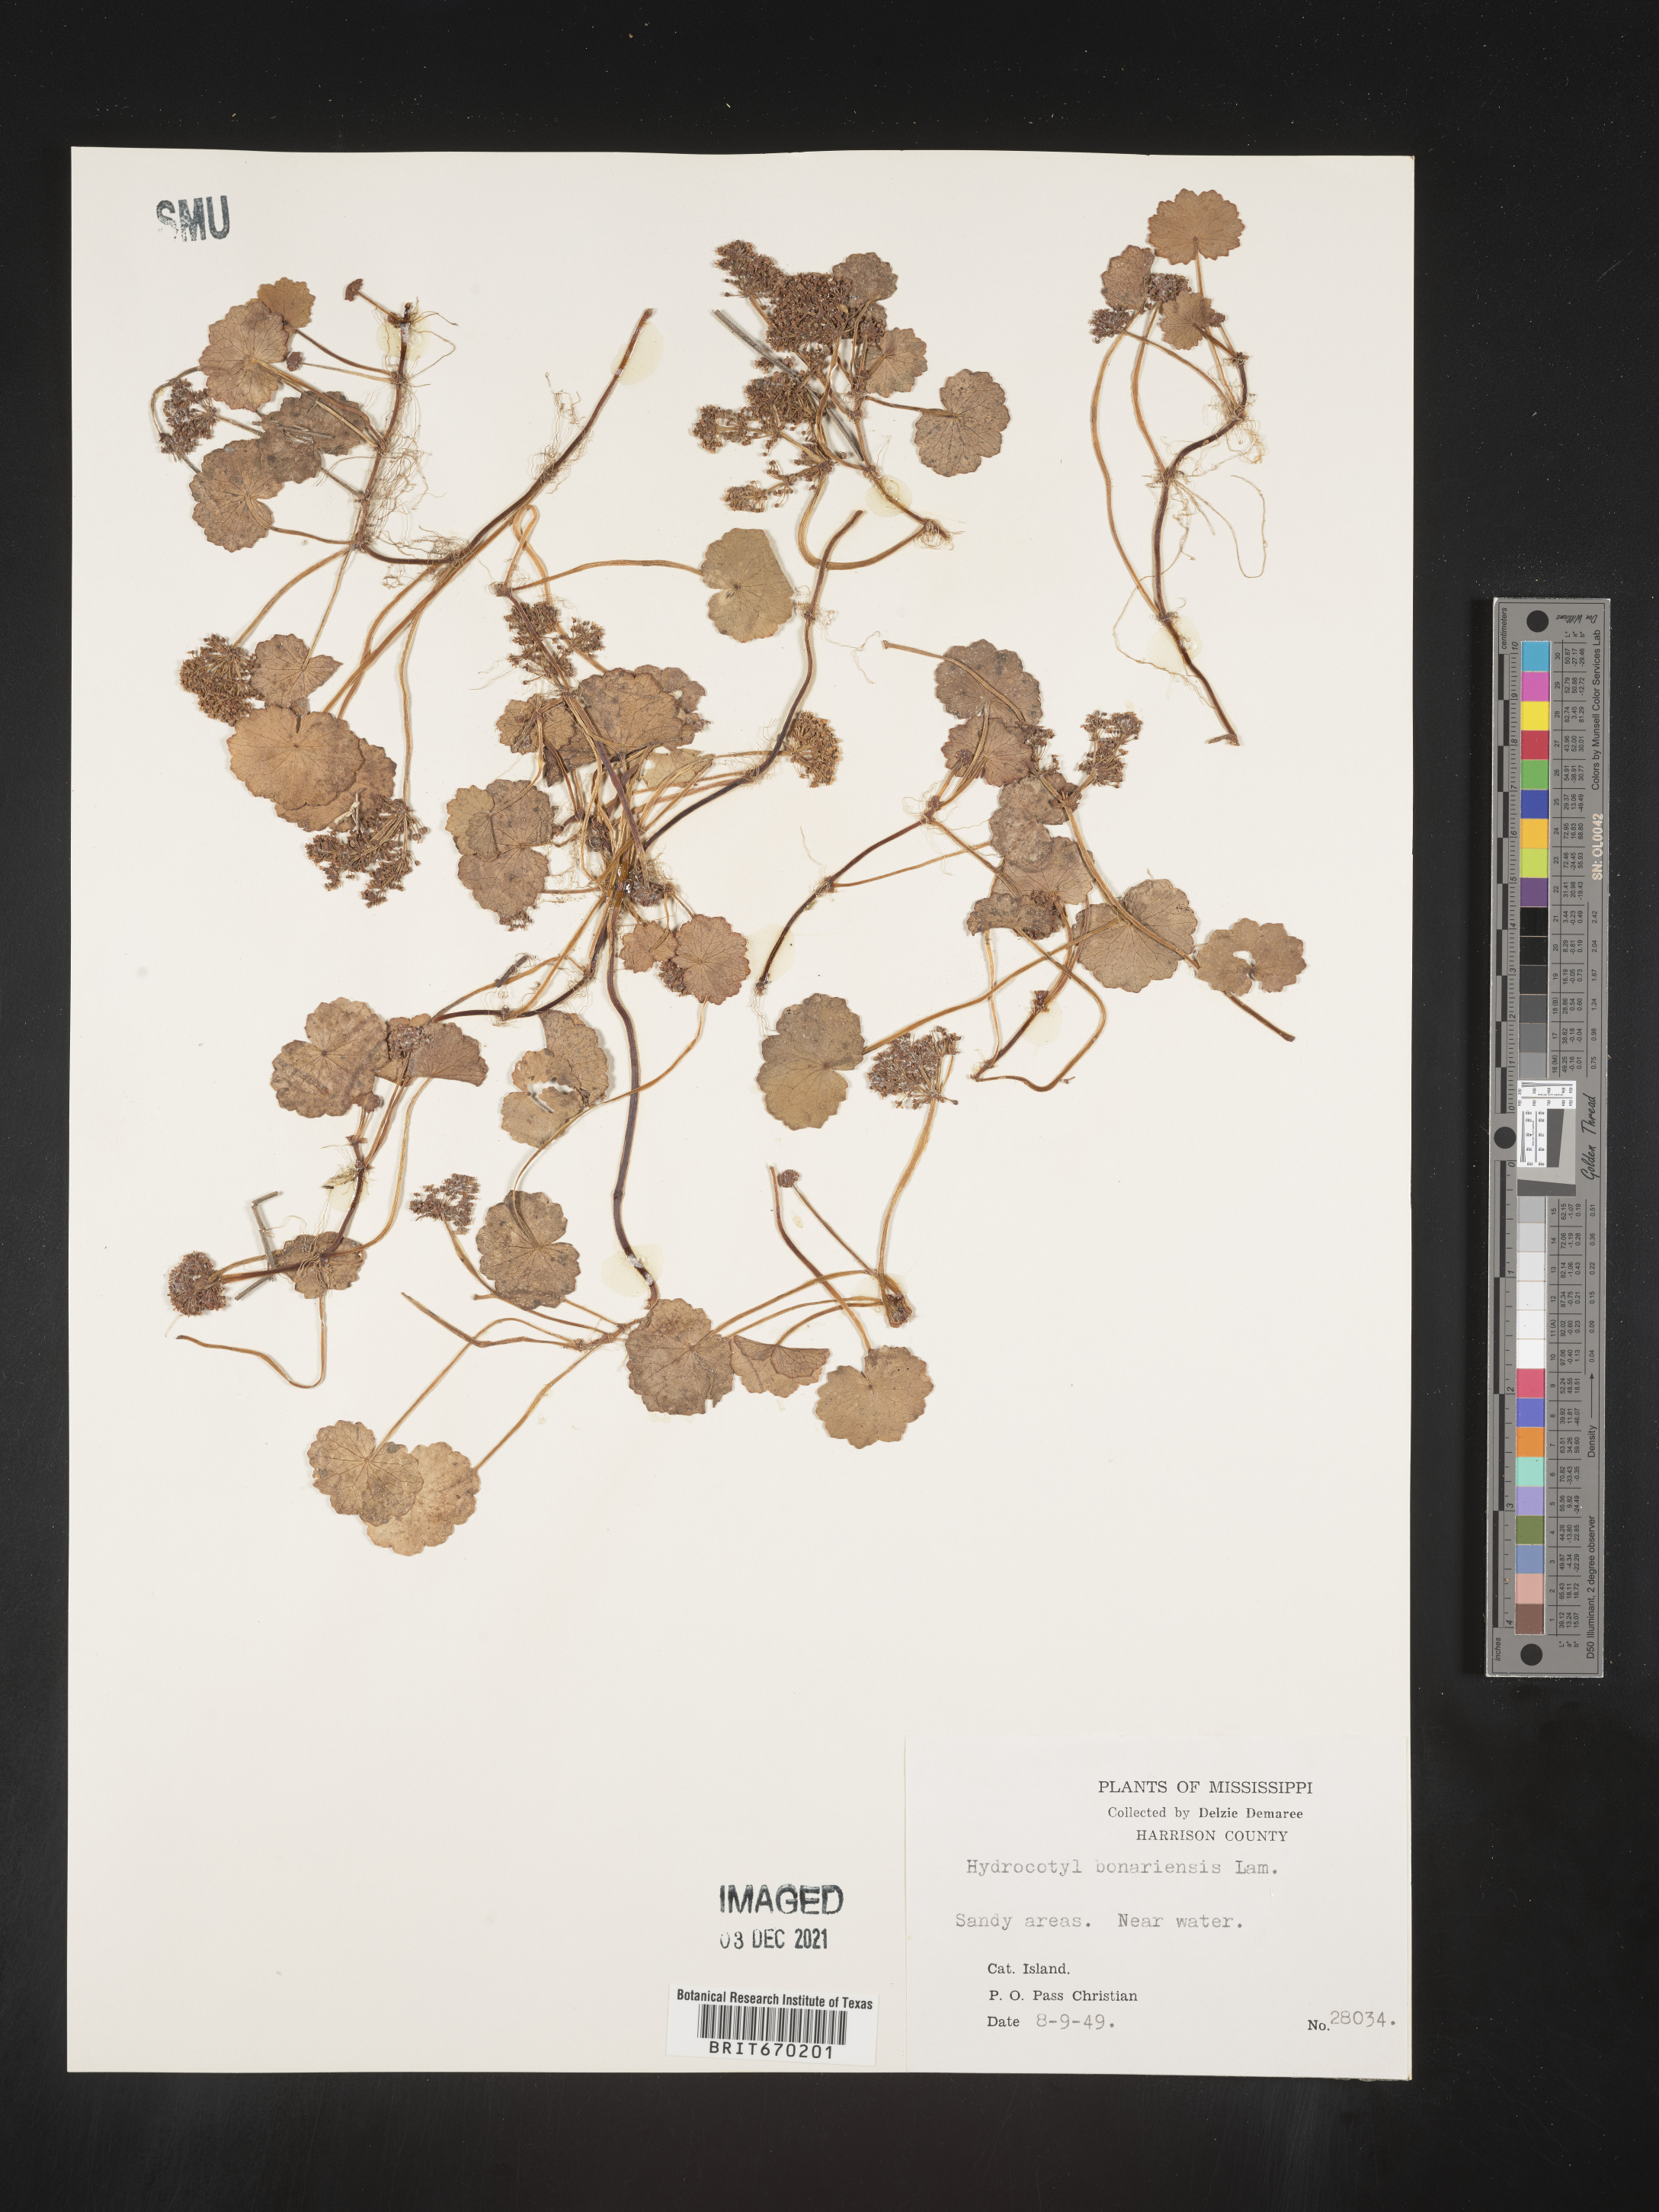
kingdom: Plantae
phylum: Tracheophyta
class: Magnoliopsida
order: Apiales
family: Araliaceae
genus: Hydrocotyle
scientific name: Hydrocotyle bonariensis
